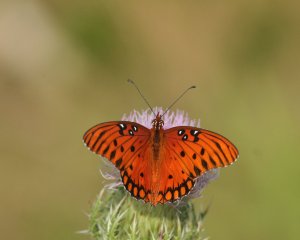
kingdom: Animalia
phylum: Arthropoda
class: Insecta
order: Lepidoptera
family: Nymphalidae
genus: Dione
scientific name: Dione vanillae
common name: Gulf Fritillary
